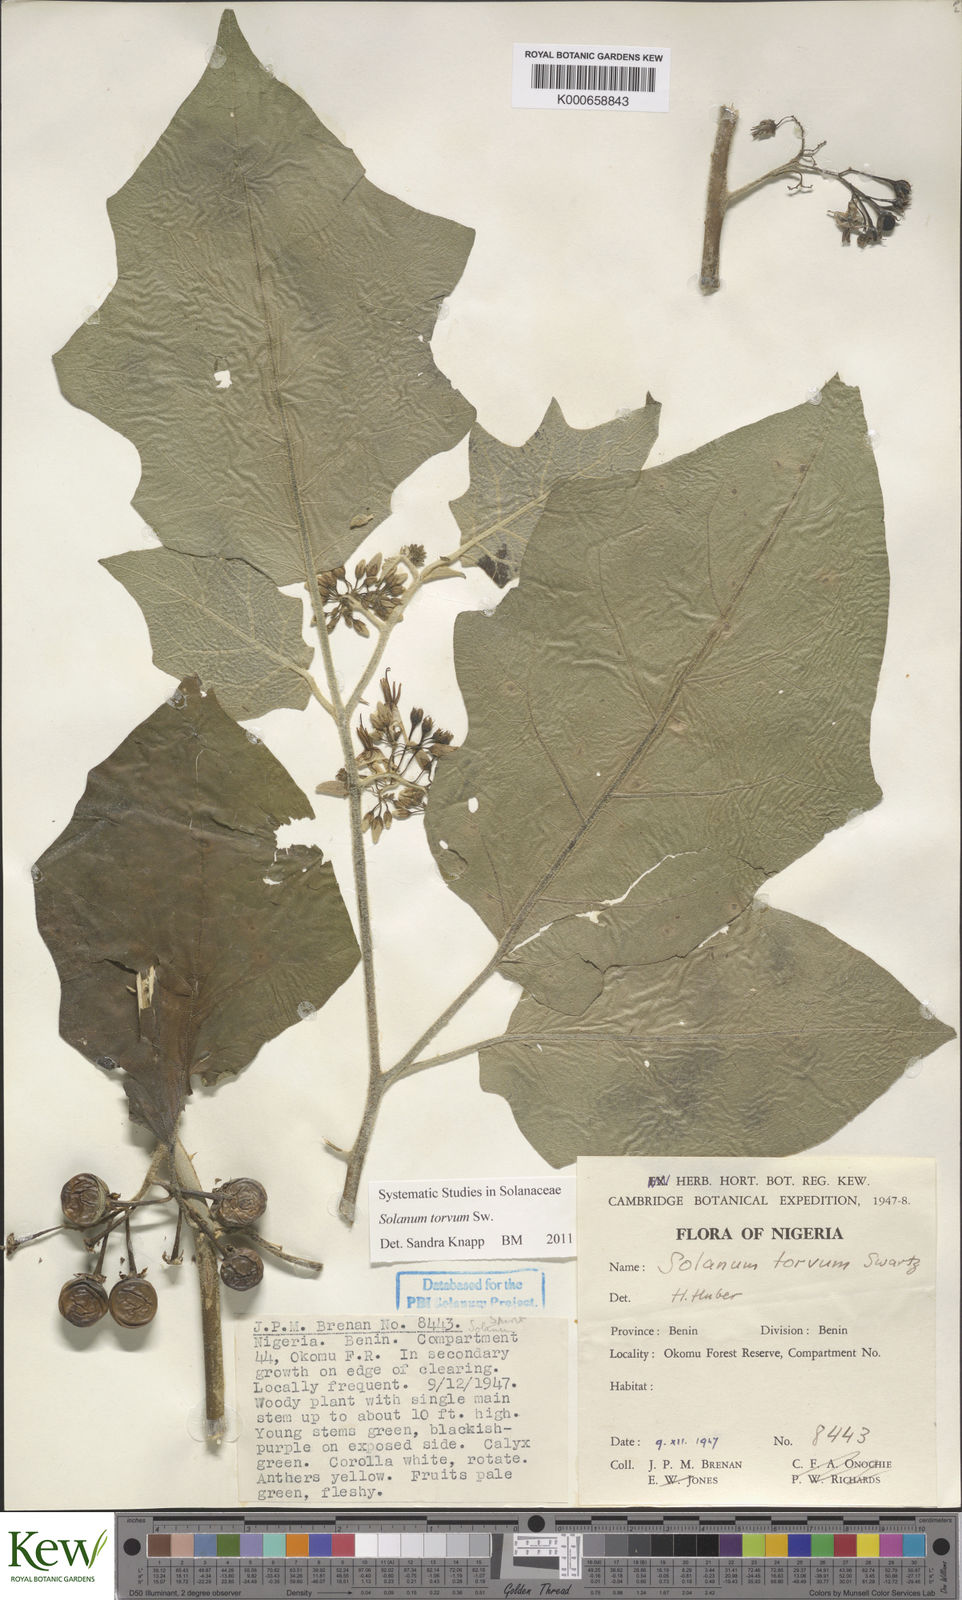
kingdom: Plantae
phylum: Tracheophyta
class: Magnoliopsida
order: Solanales
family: Solanaceae
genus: Solanum
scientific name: Solanum torvum
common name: Turkey berry
